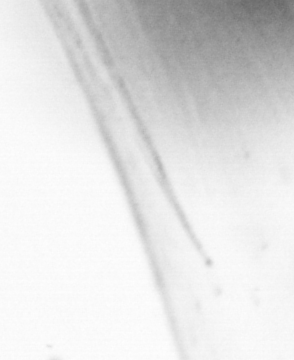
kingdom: Animalia
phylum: Chaetognatha
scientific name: Chaetognatha
